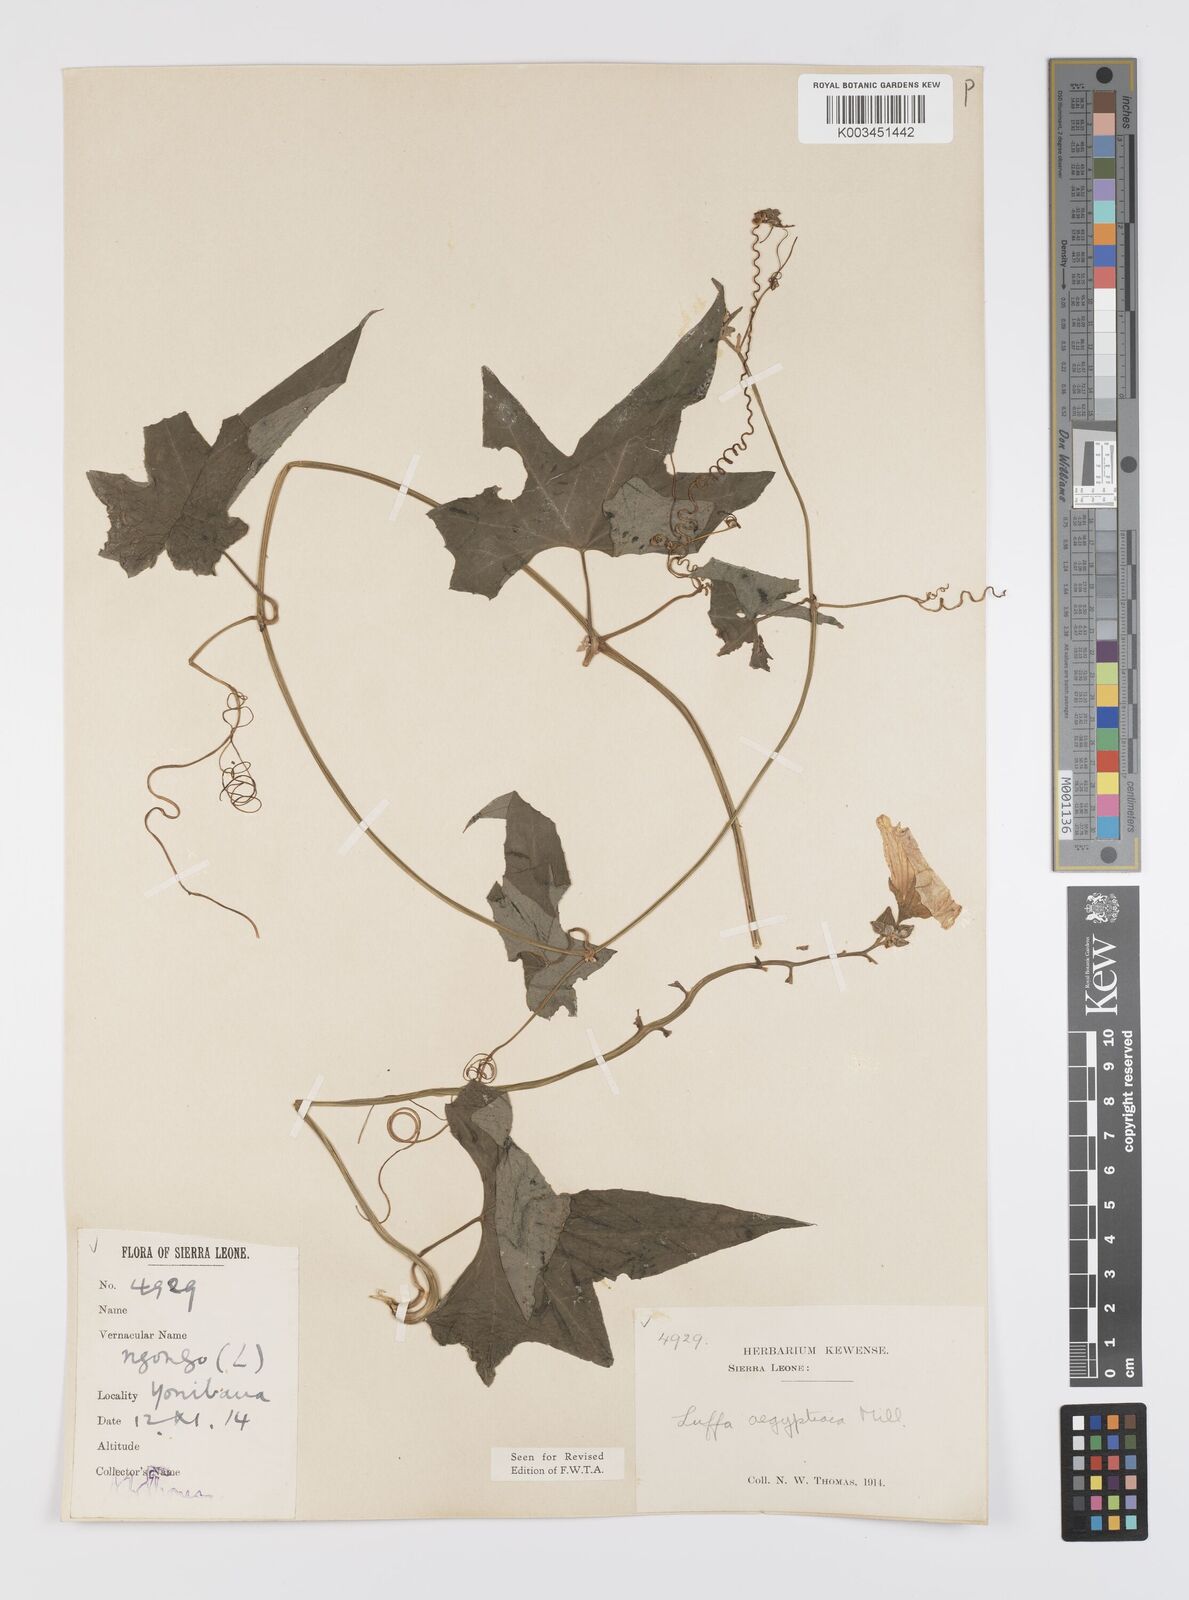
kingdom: Plantae
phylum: Tracheophyta
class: Magnoliopsida
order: Cucurbitales
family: Cucurbitaceae
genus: Luffa
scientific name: Luffa aegyptiaca
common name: Sponge gourd
